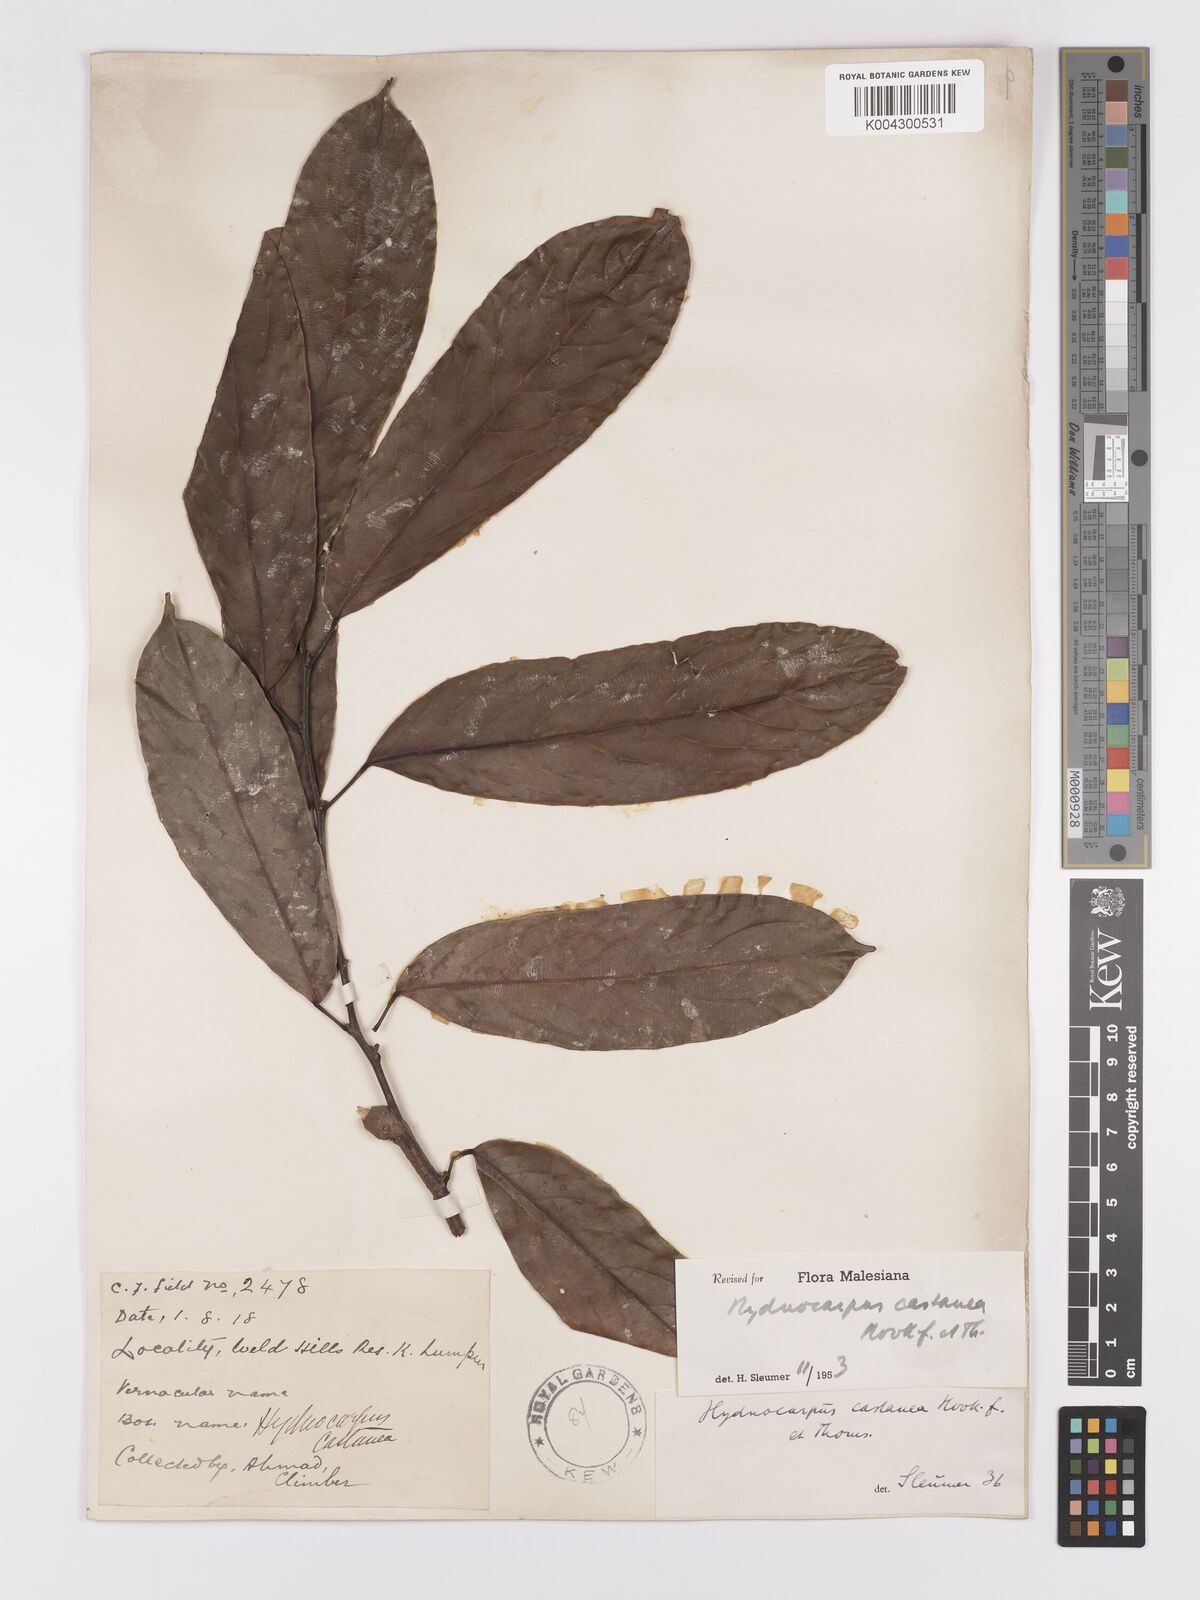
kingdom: Plantae
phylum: Tracheophyta
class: Magnoliopsida
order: Malpighiales
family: Achariaceae
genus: Hydnocarpus
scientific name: Hydnocarpus castaneus
